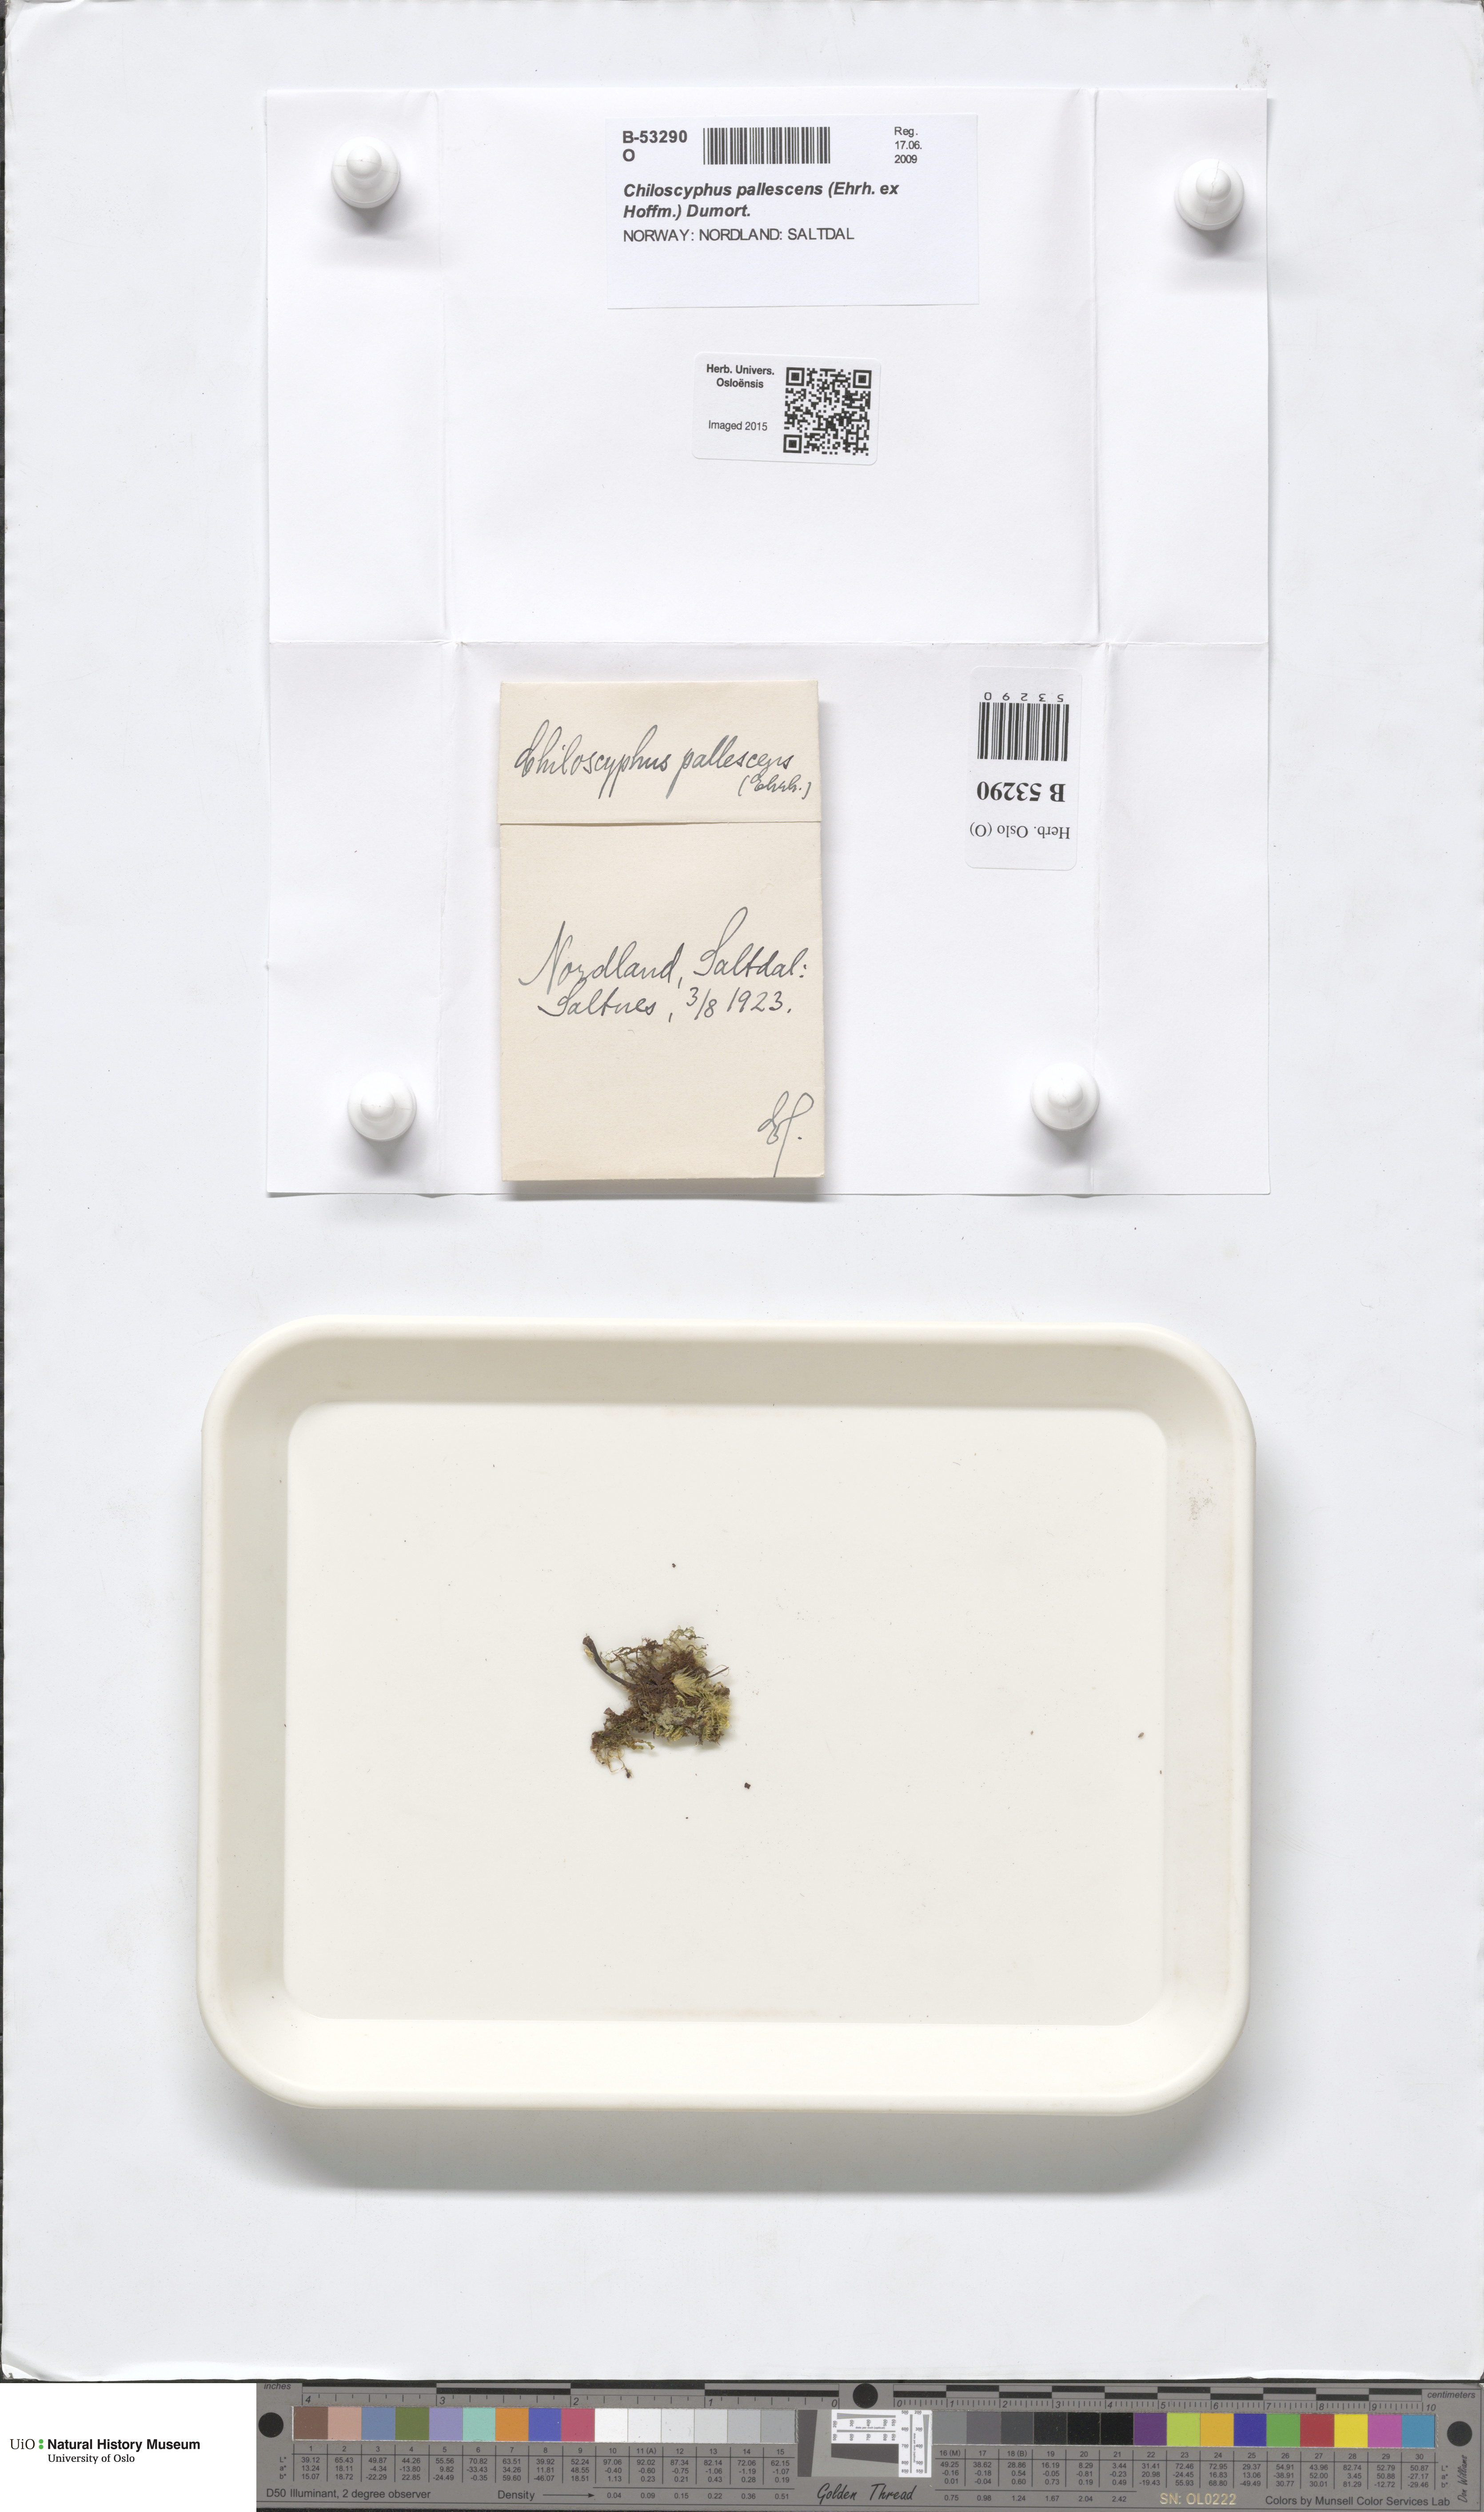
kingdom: Plantae
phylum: Marchantiophyta
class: Jungermanniopsida
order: Jungermanniales
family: Lophocoleaceae
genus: Chiloscyphus
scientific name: Chiloscyphus pallescens
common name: St winifrid's other moss
